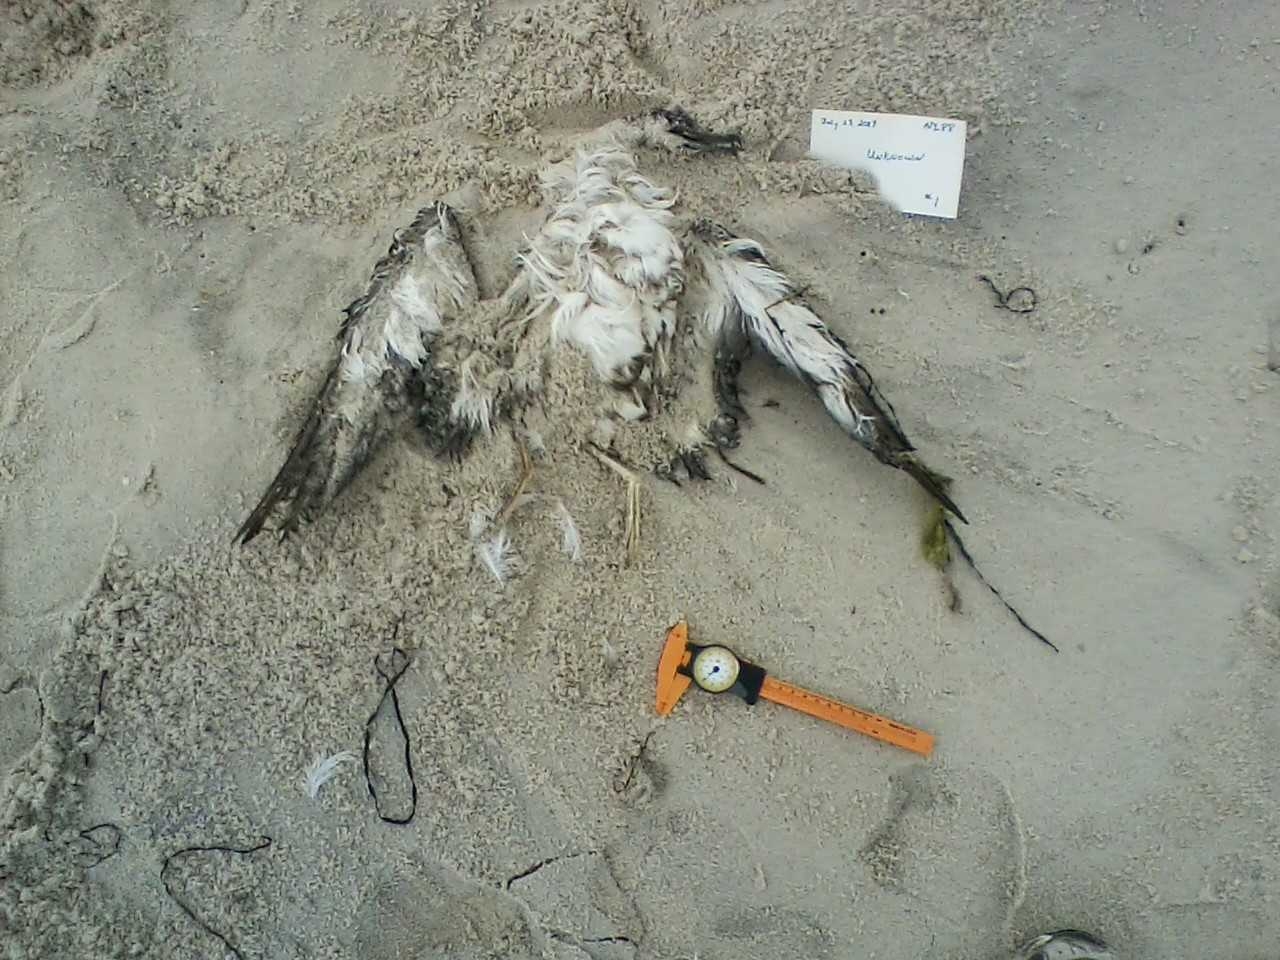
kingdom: Animalia
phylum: Chordata
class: Aves
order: Accipitriformes
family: Pandionidae
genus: Pandion
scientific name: Pandion cristatus
